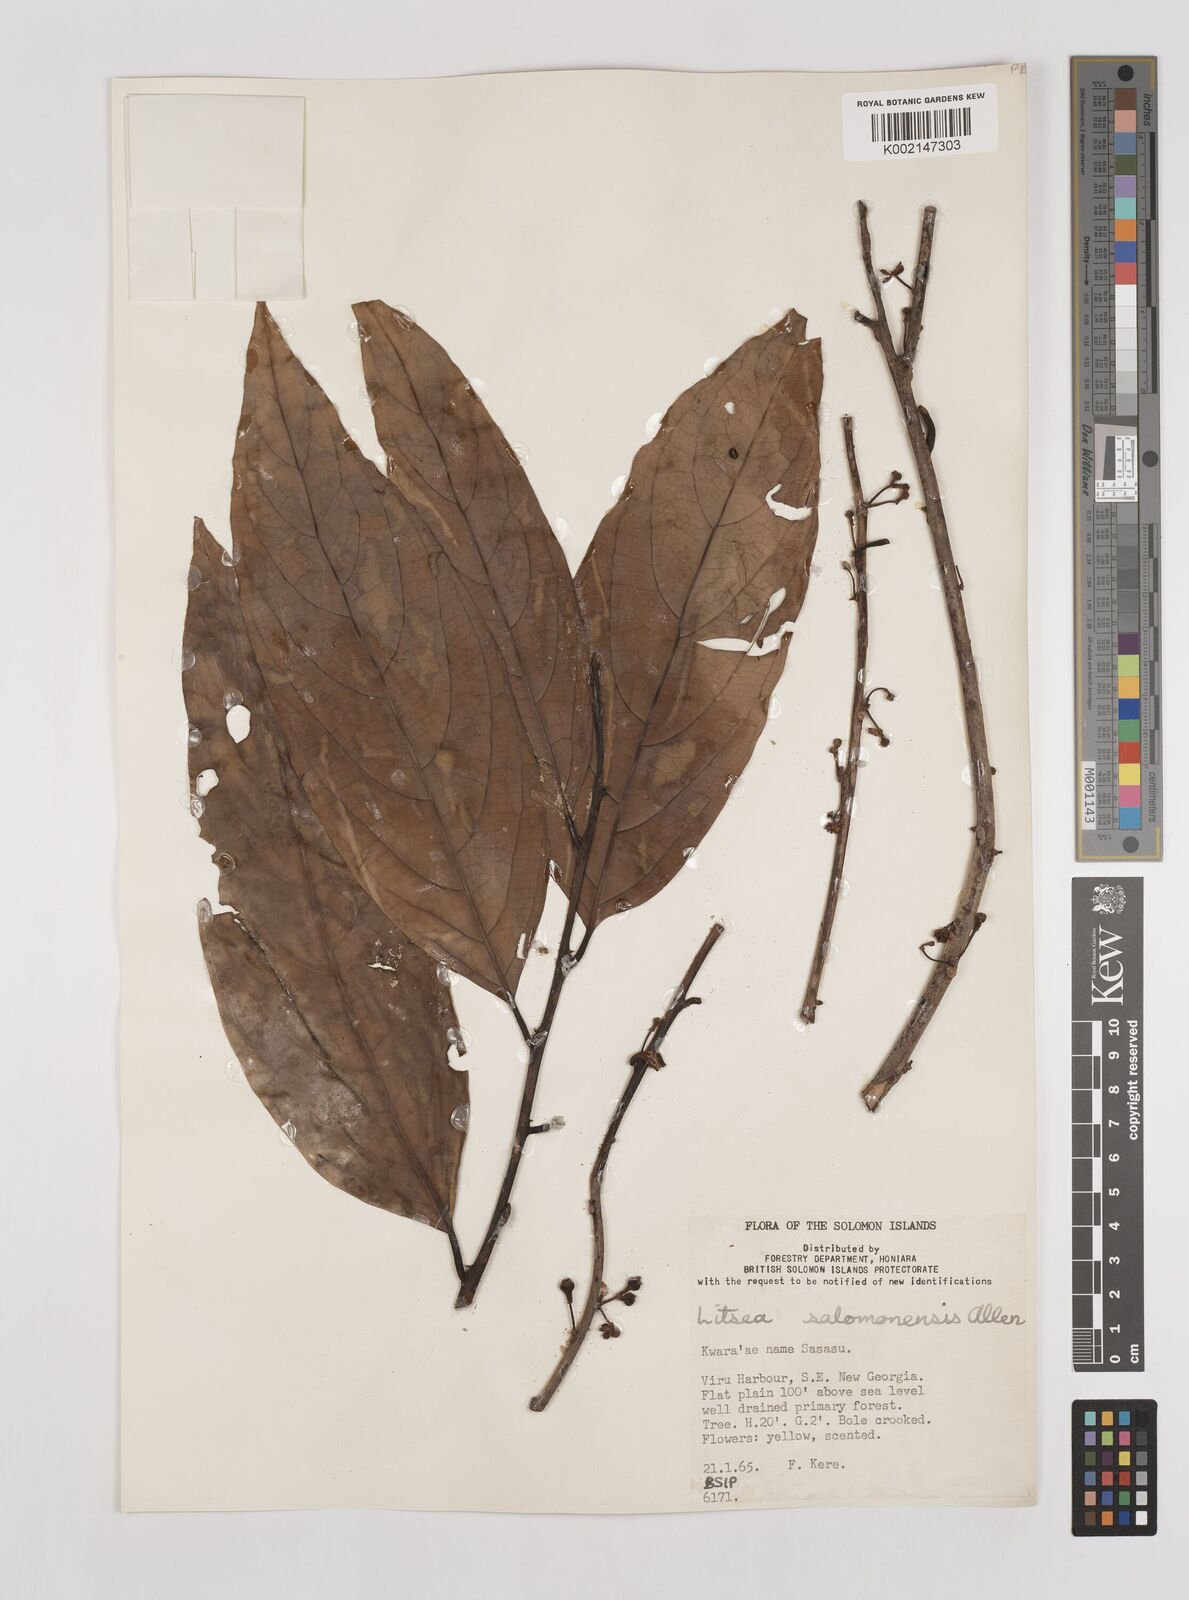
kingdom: Plantae
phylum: Tracheophyta
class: Magnoliopsida
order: Laurales
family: Lauraceae
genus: Litsea
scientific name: Litsea timoriana
